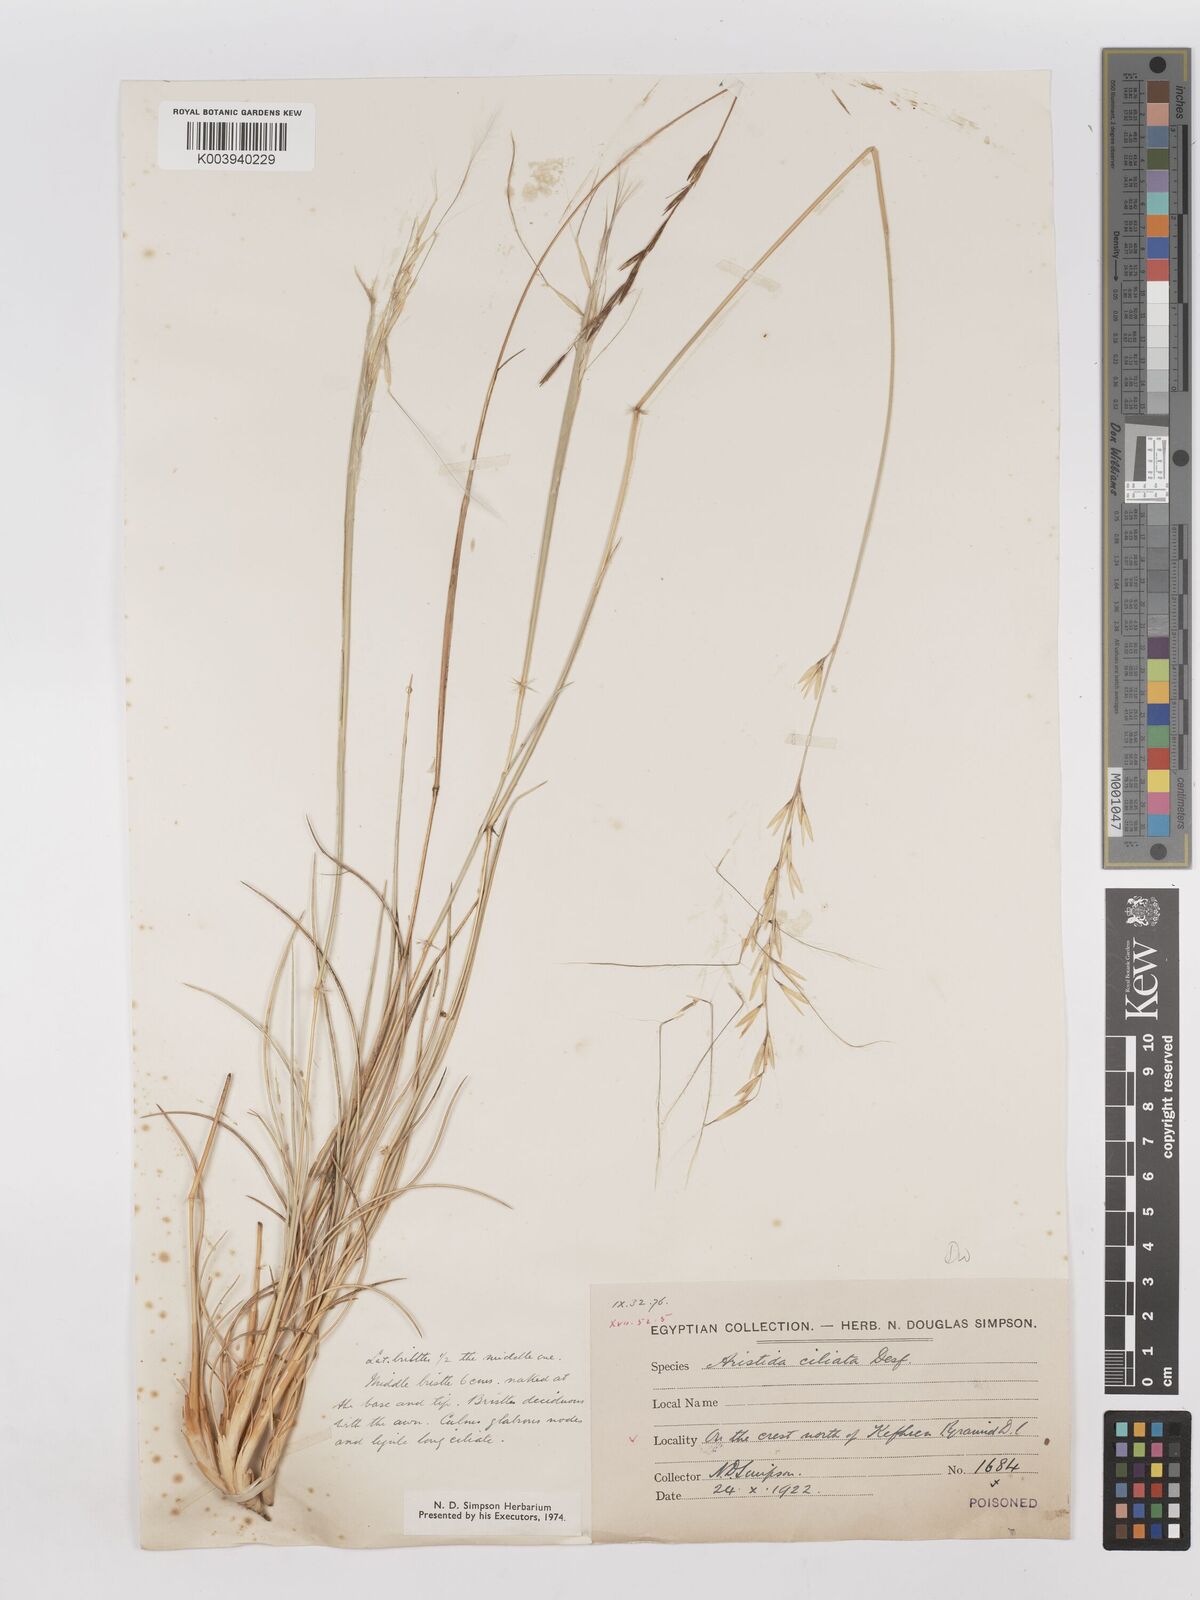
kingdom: Plantae
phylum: Tracheophyta
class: Liliopsida
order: Poales
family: Poaceae
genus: Stipagrostis
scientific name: Stipagrostis ciliata
